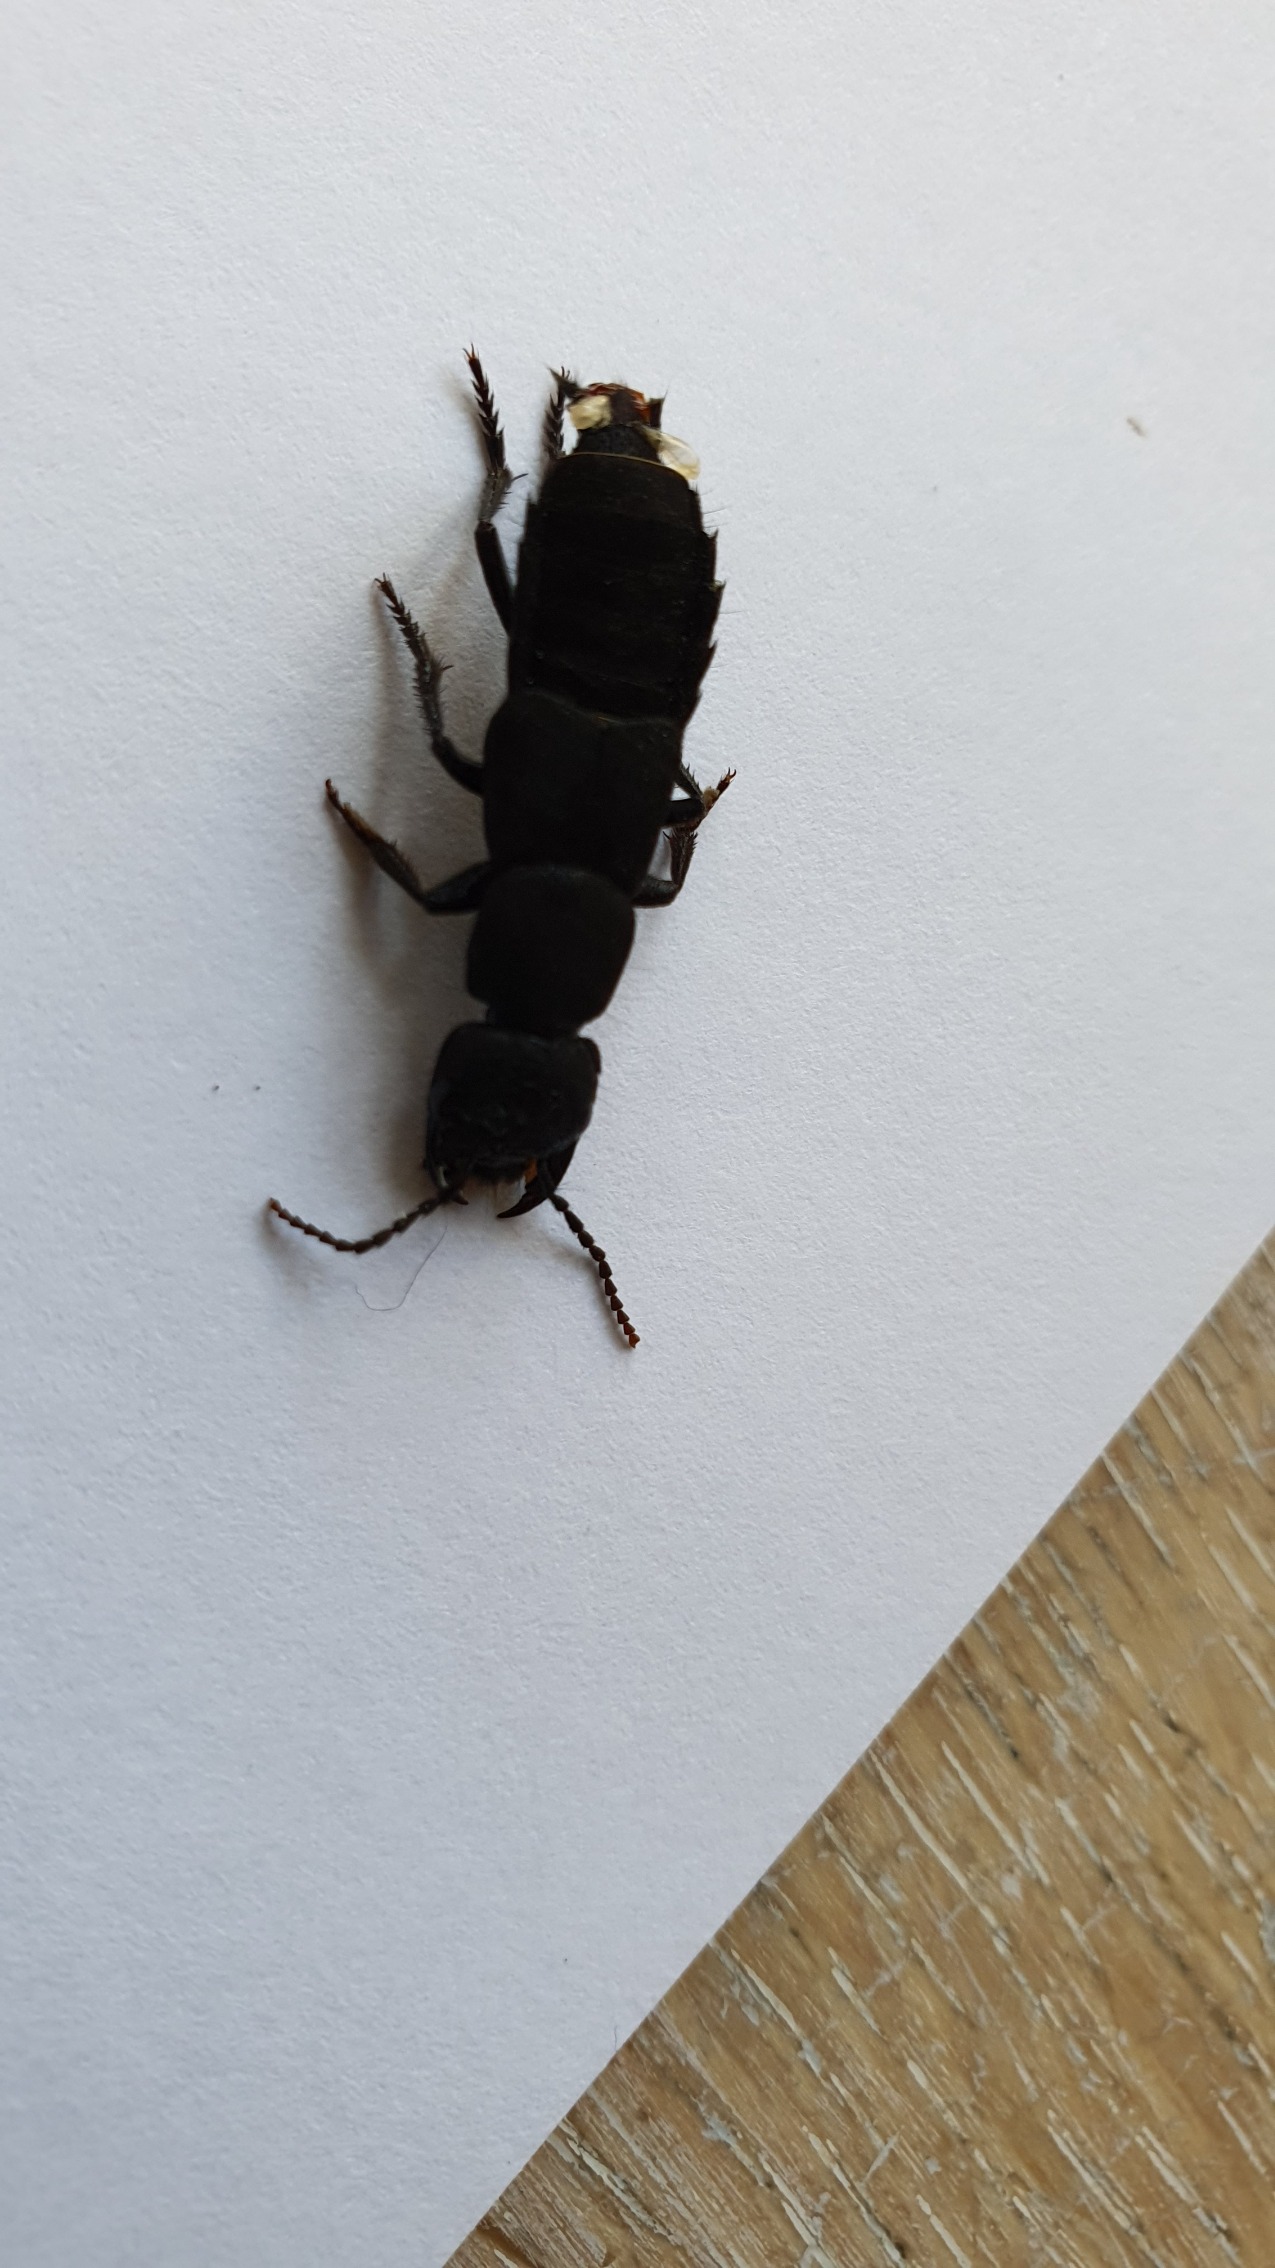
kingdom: Animalia
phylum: Arthropoda
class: Insecta
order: Coleoptera
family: Staphylinidae
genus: Ocypus
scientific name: Ocypus olens
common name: Stor rovbille
